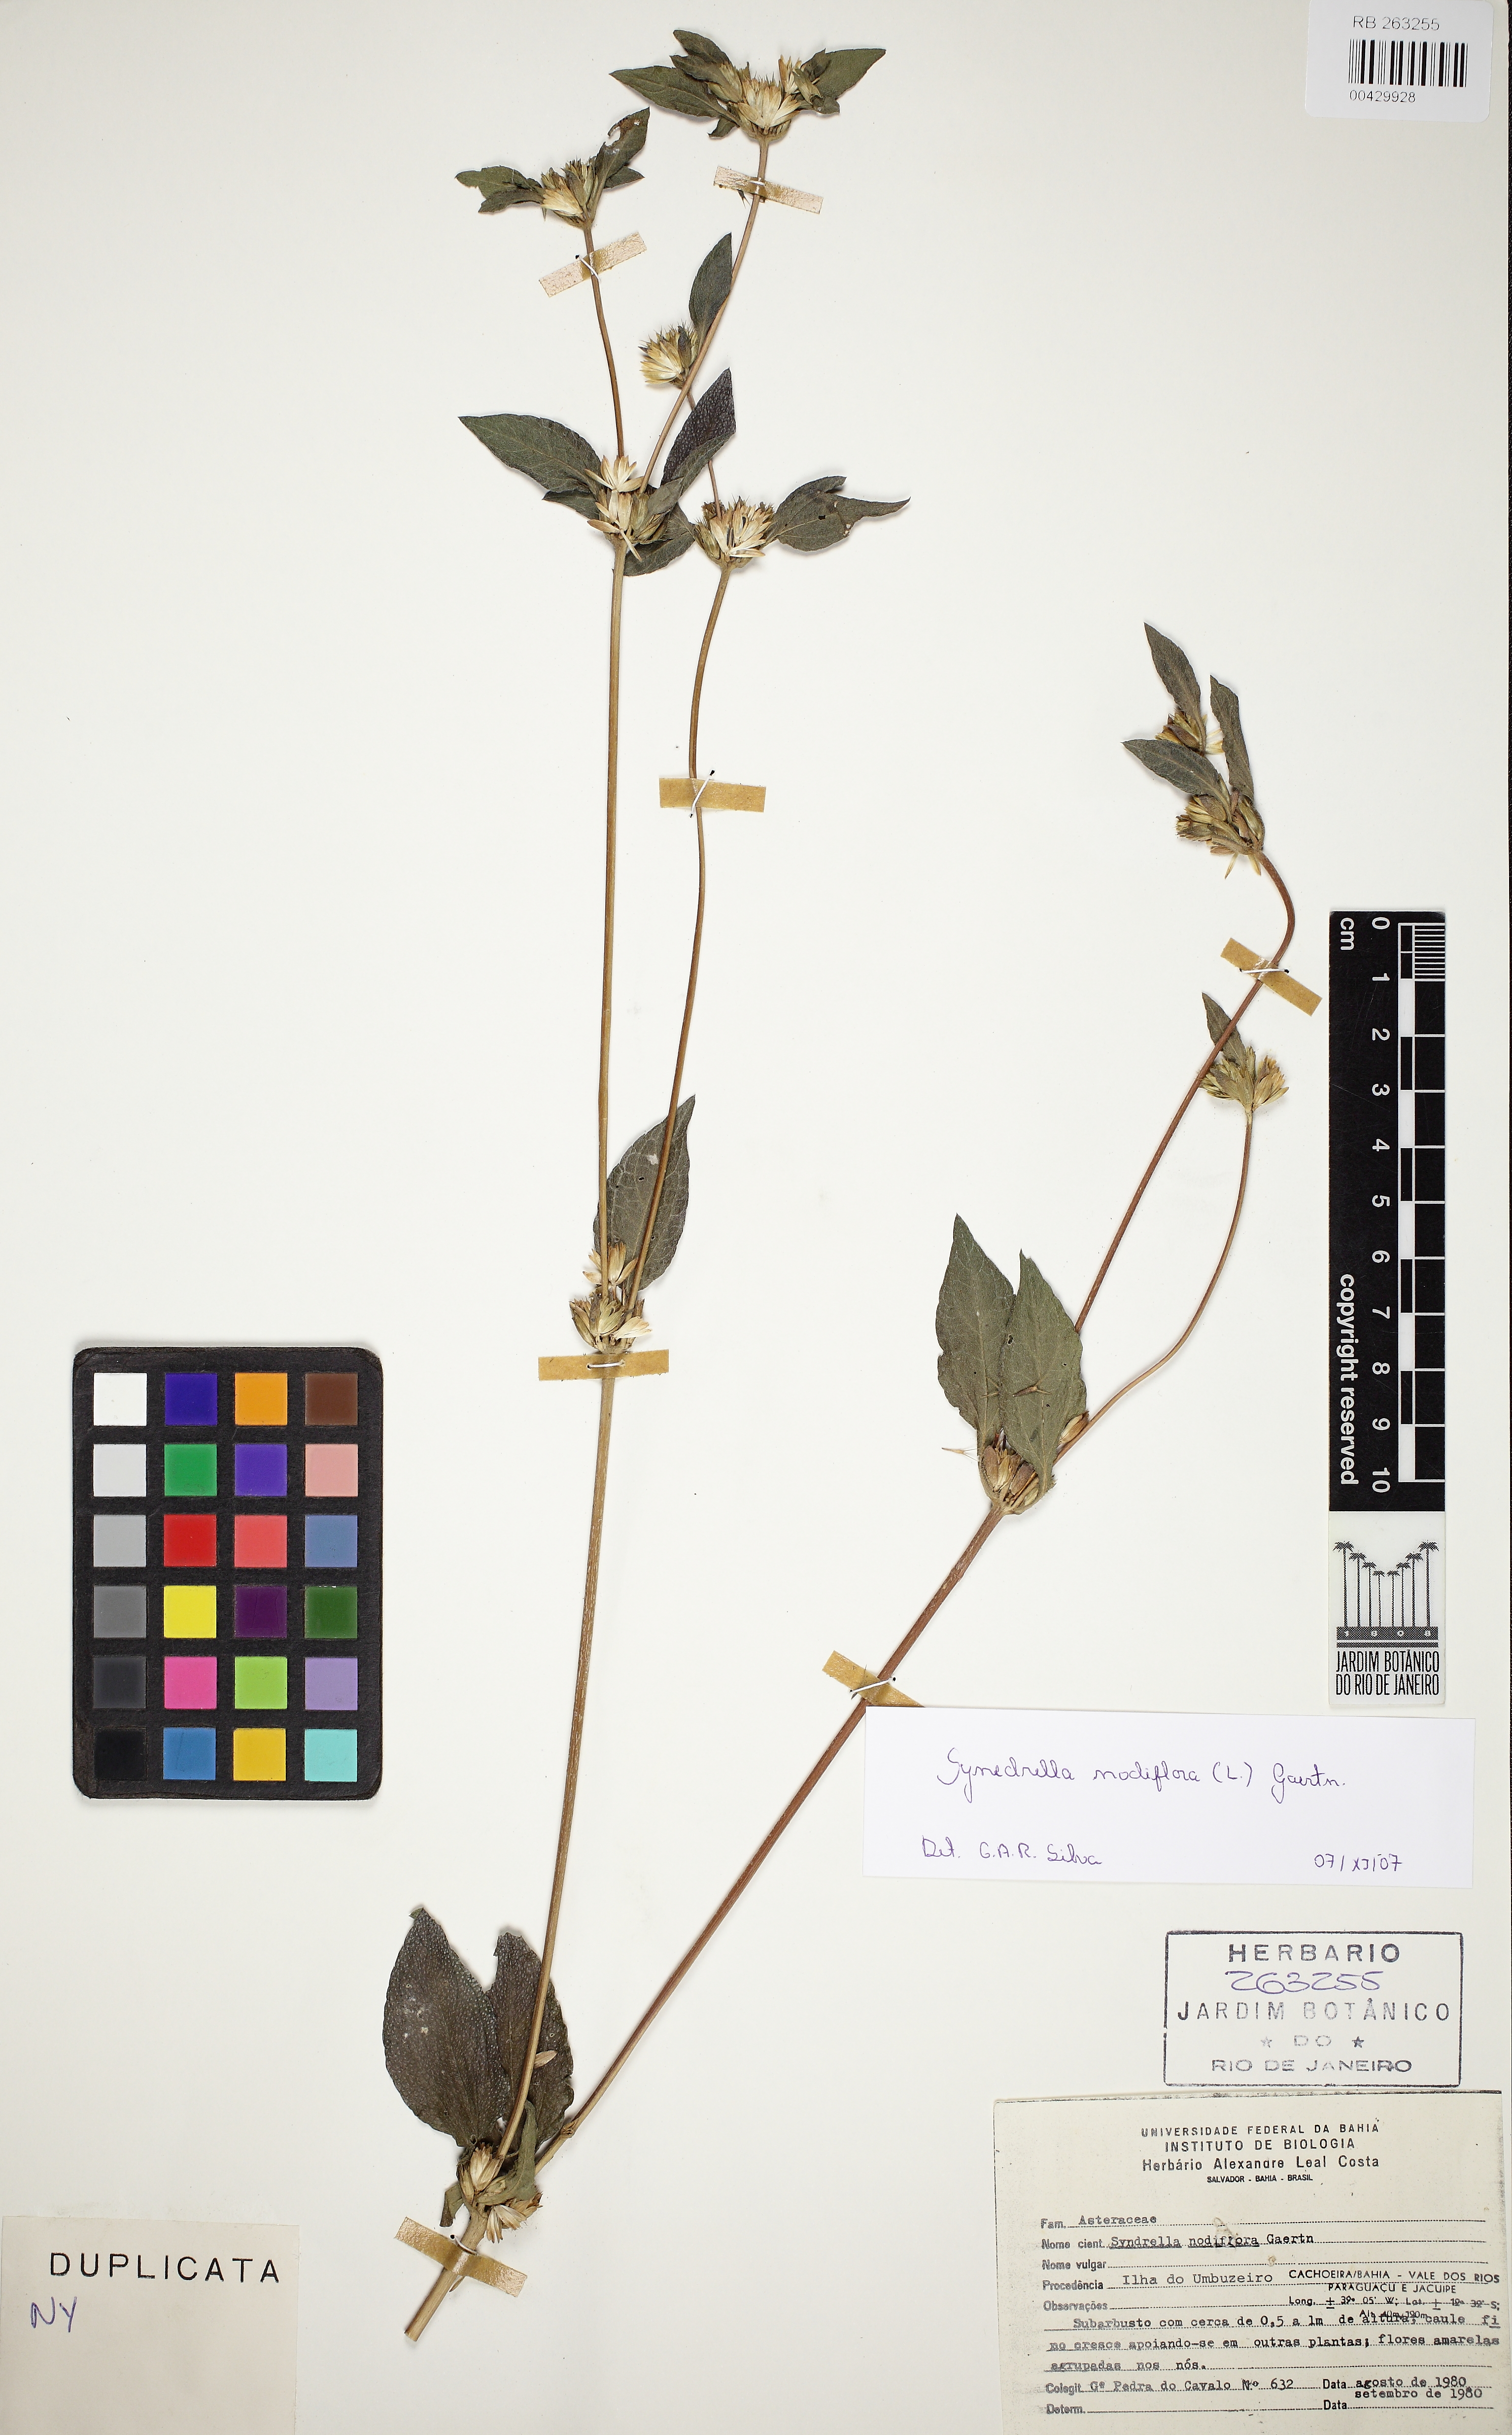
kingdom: Plantae
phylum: Tracheophyta
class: Magnoliopsida
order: Asterales
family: Asteraceae
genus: Synedrella
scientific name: Synedrella nodiflora
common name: Nodeweed
